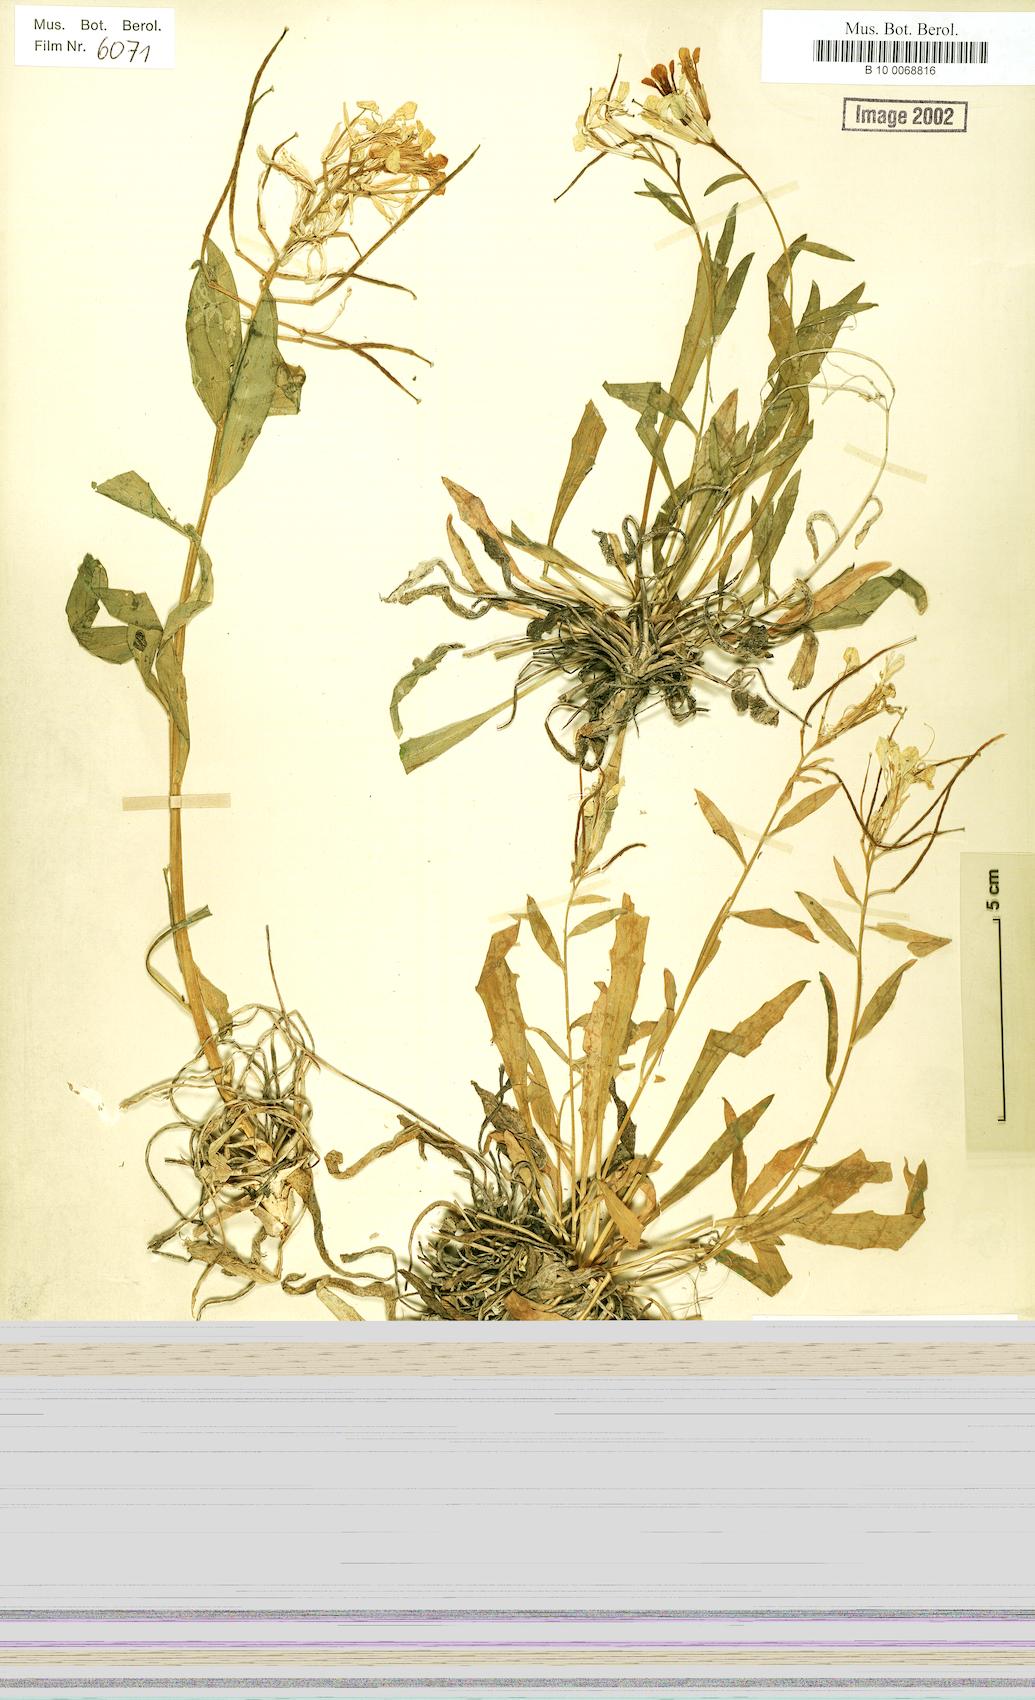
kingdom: Plantae
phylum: Tracheophyta
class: Magnoliopsida
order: Brassicales
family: Brassicaceae
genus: Erysimum
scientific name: Erysimum szowitsianum
